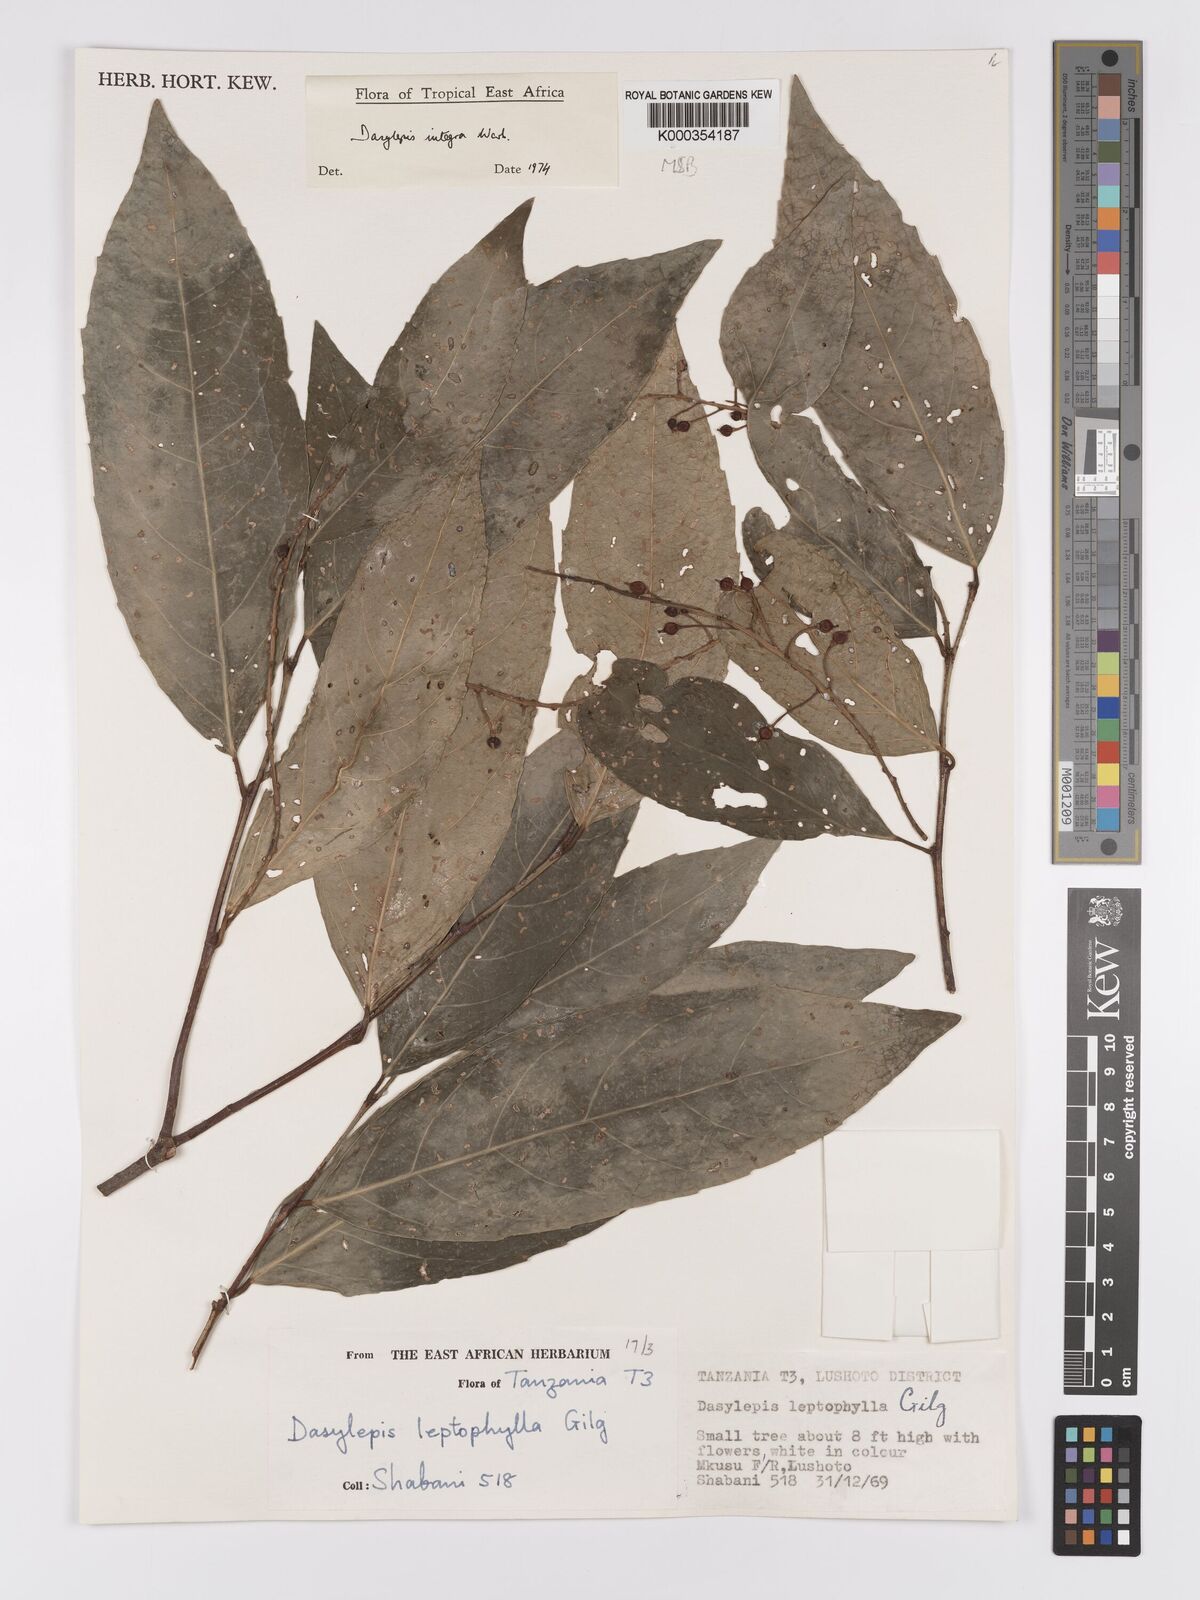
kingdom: Plantae
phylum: Tracheophyta
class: Magnoliopsida
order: Malpighiales
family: Achariaceae
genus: Dasylepis
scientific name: Dasylepis integra
